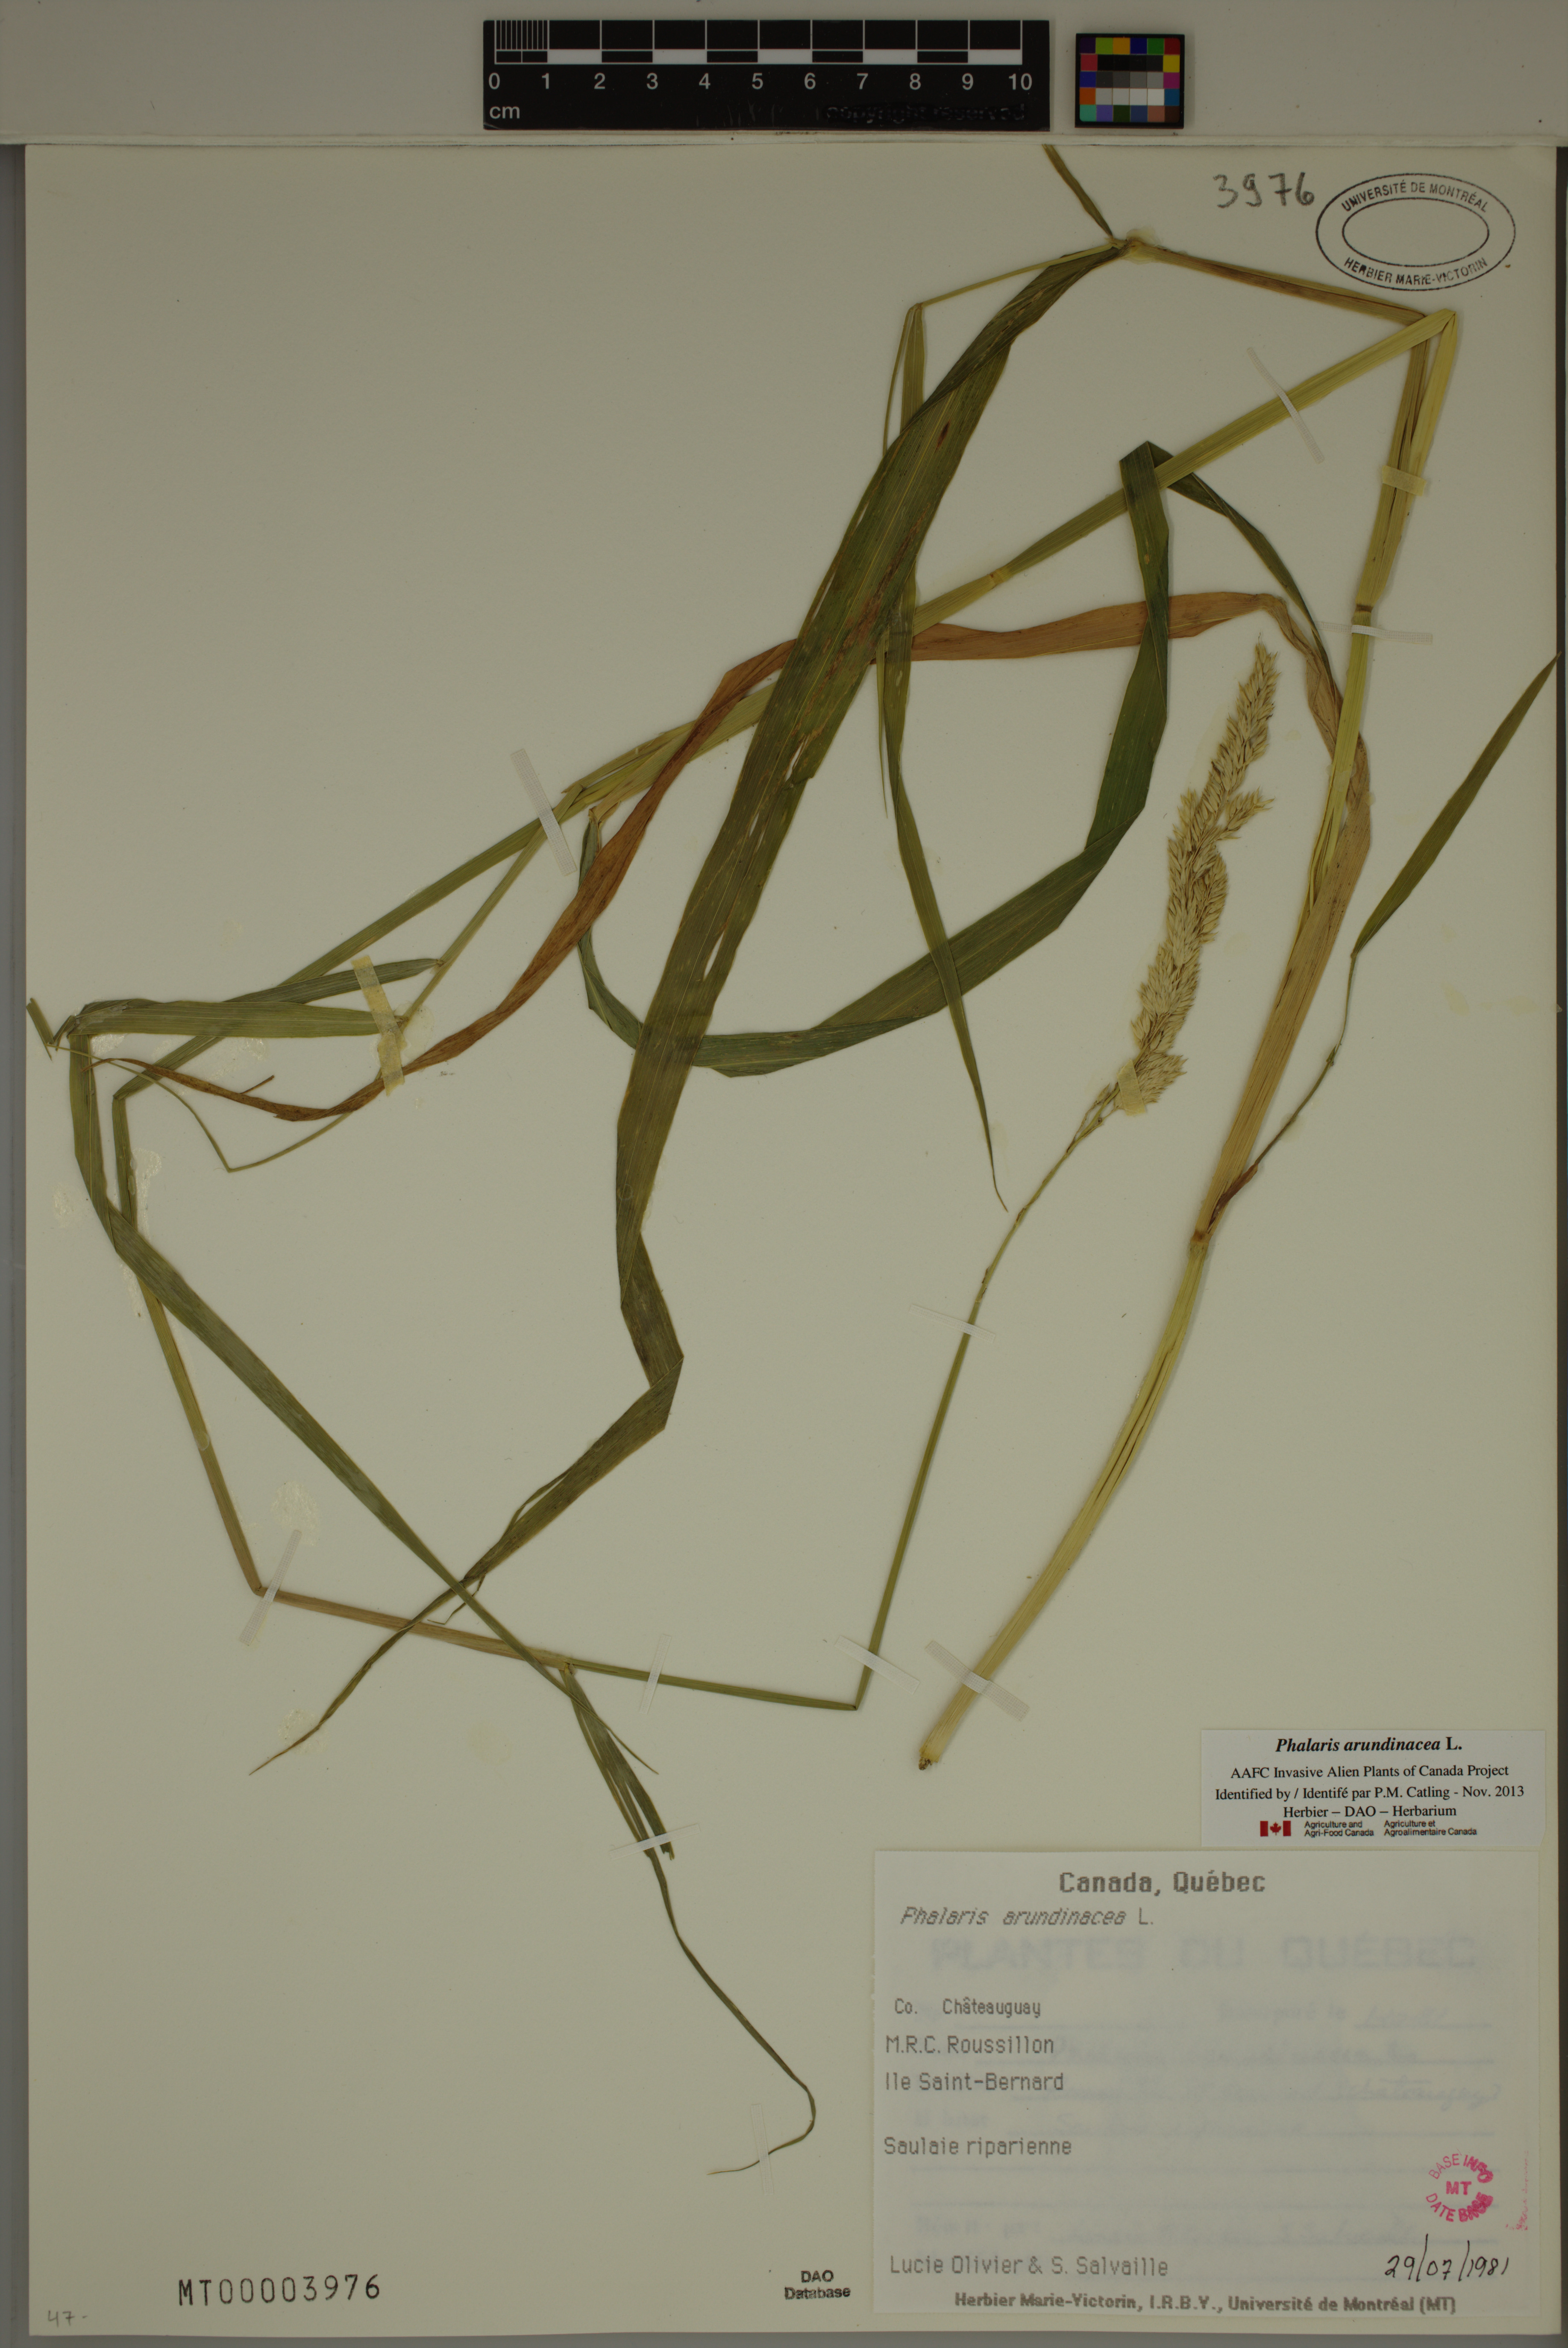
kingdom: Plantae
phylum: Tracheophyta
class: Liliopsida
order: Poales
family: Poaceae
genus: Phalaris
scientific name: Phalaris arundinacea
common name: Reed canary-grass
